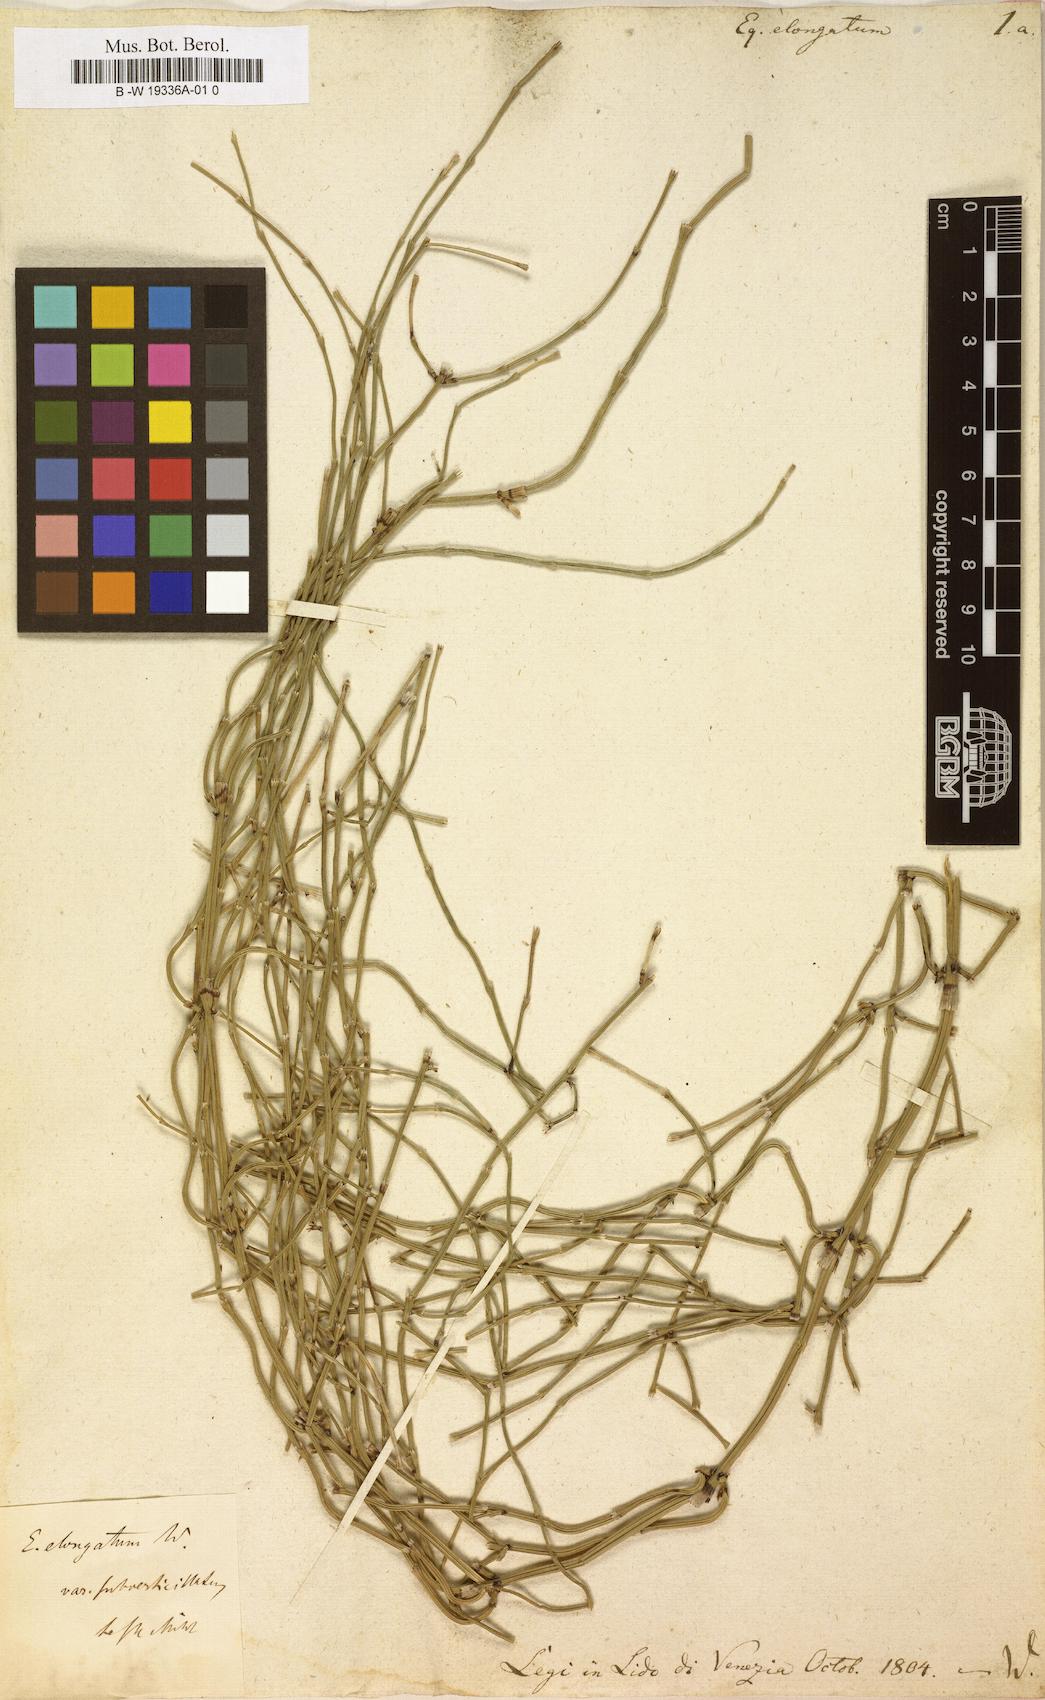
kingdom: Plantae
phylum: Tracheophyta
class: Polypodiopsida
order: Equisetales
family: Equisetaceae
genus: Equisetum
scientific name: Equisetum ramosissimum
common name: Branched horsetail
